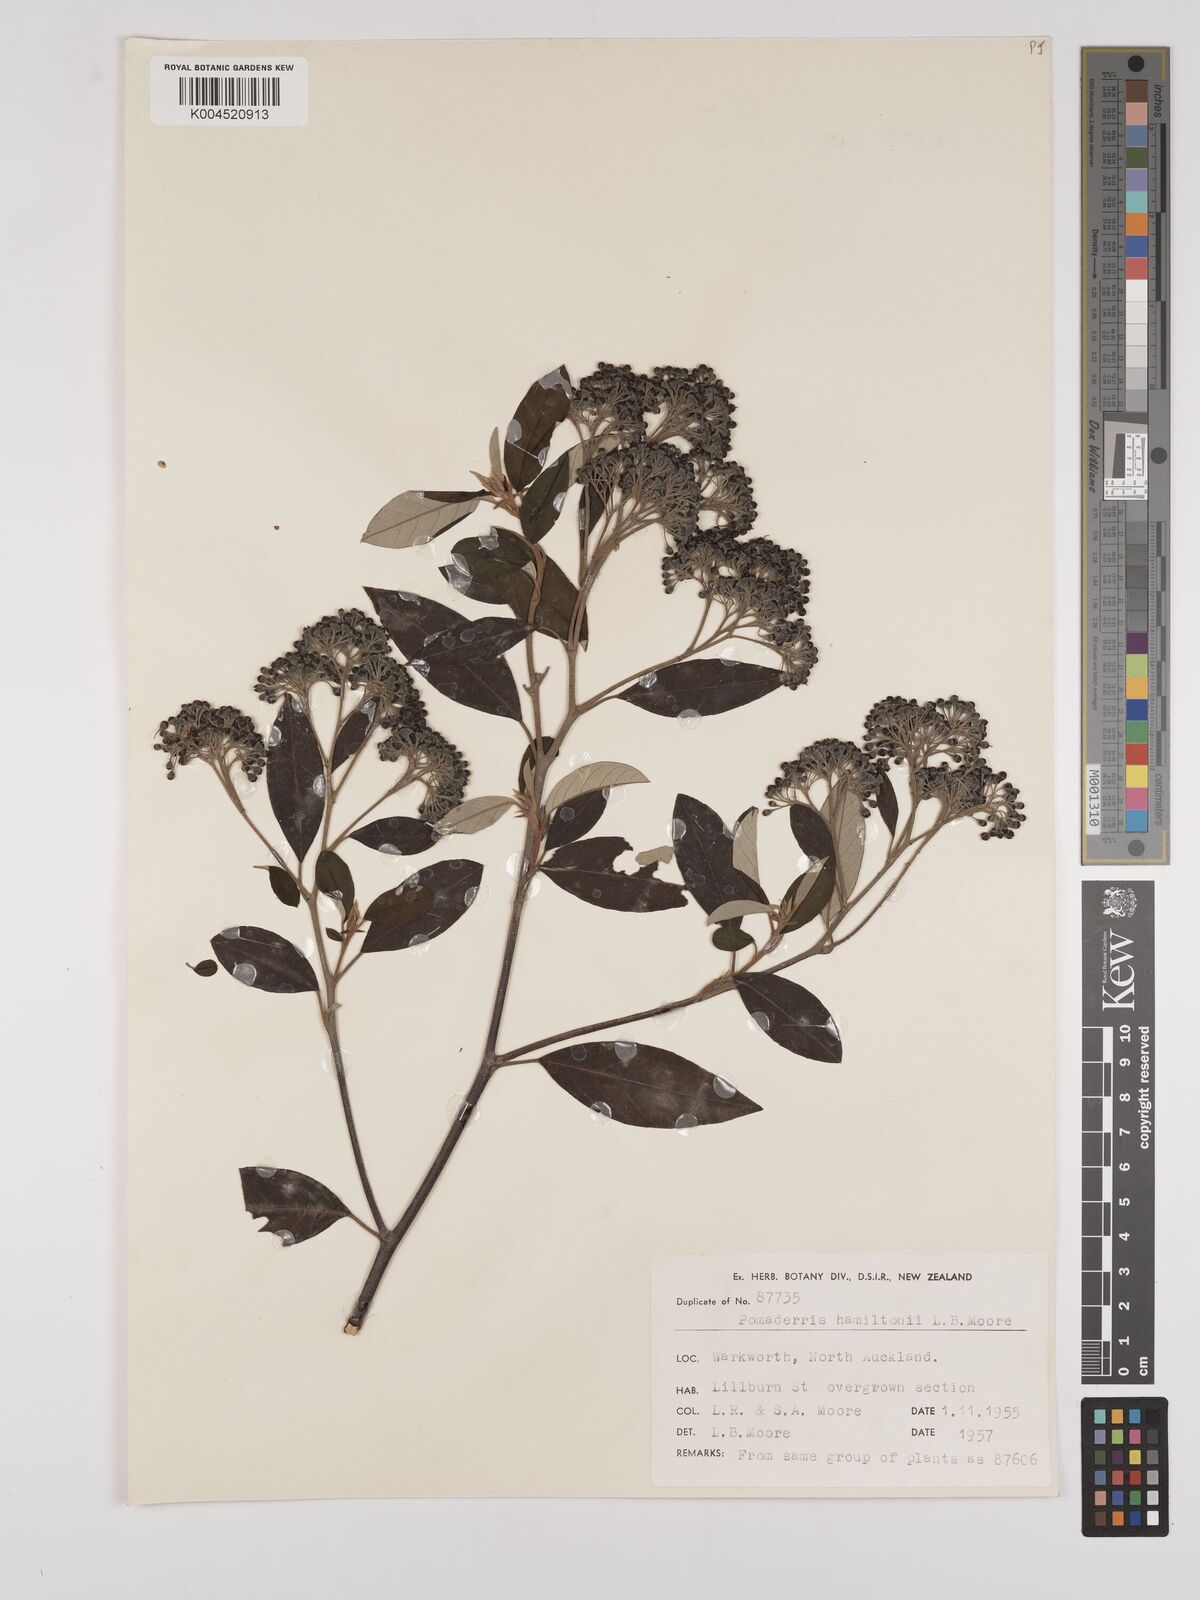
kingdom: Plantae
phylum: Tracheophyta
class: Magnoliopsida
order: Rosales
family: Rhamnaceae
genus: Pomaderris
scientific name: Pomaderris hamiltonii
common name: Pale-flowered kumarahou
